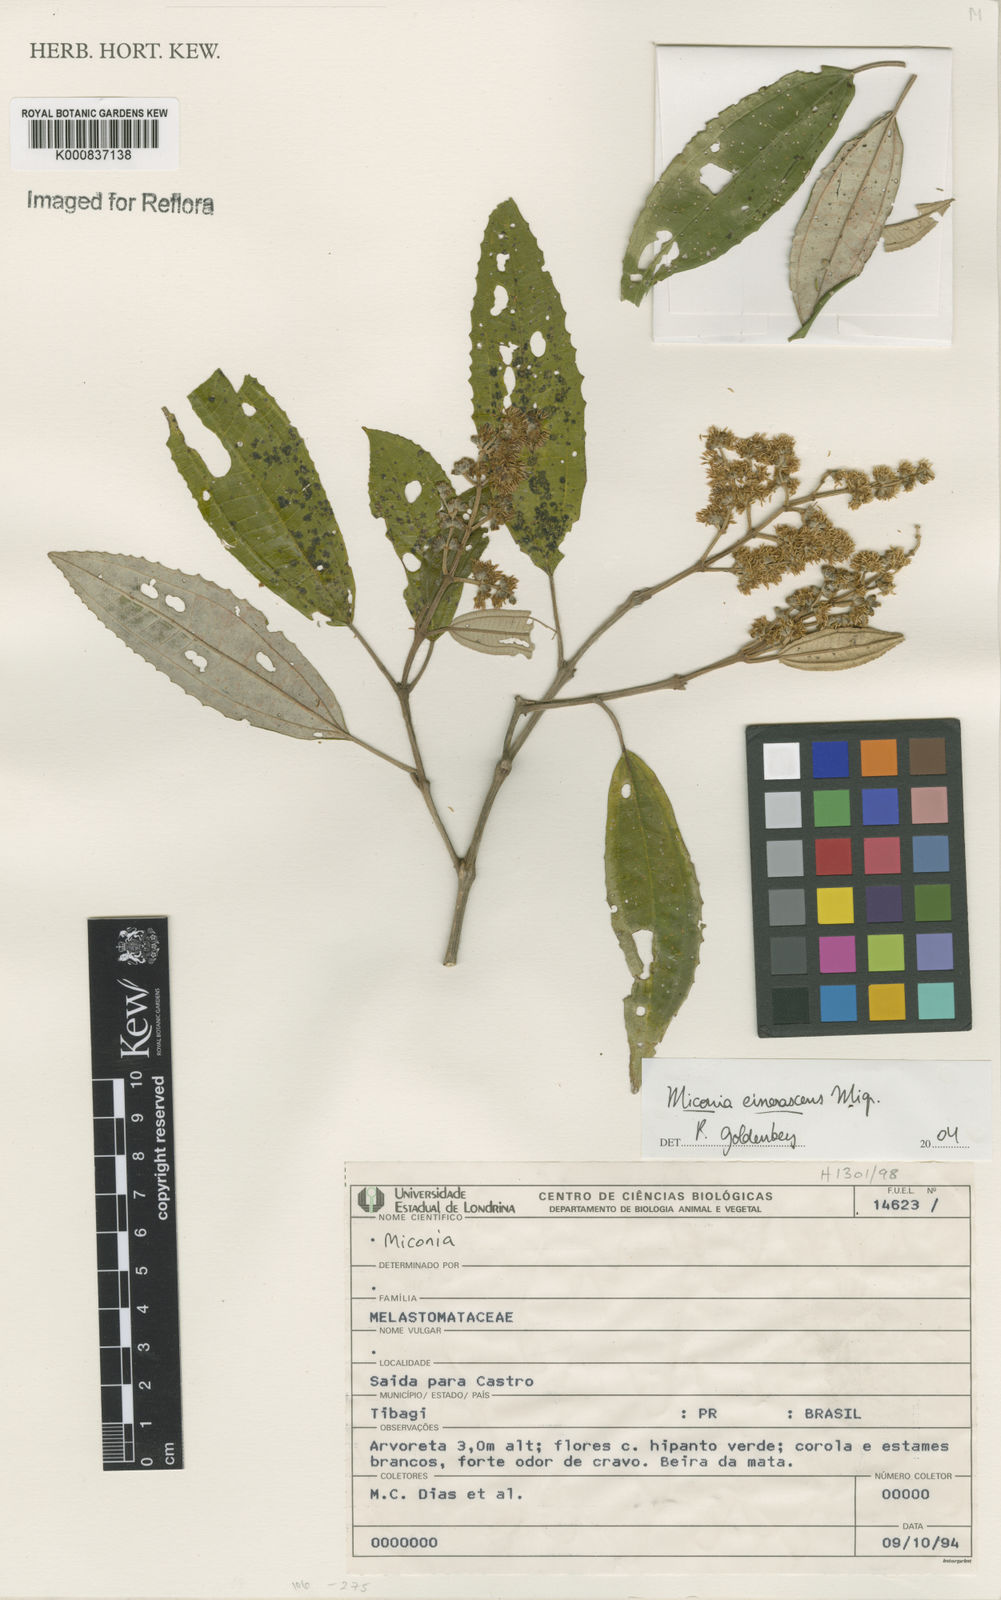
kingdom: Plantae
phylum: Tracheophyta
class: Magnoliopsida
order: Myrtales
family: Melastomataceae
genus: Miconia
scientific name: Miconia cinerascens
